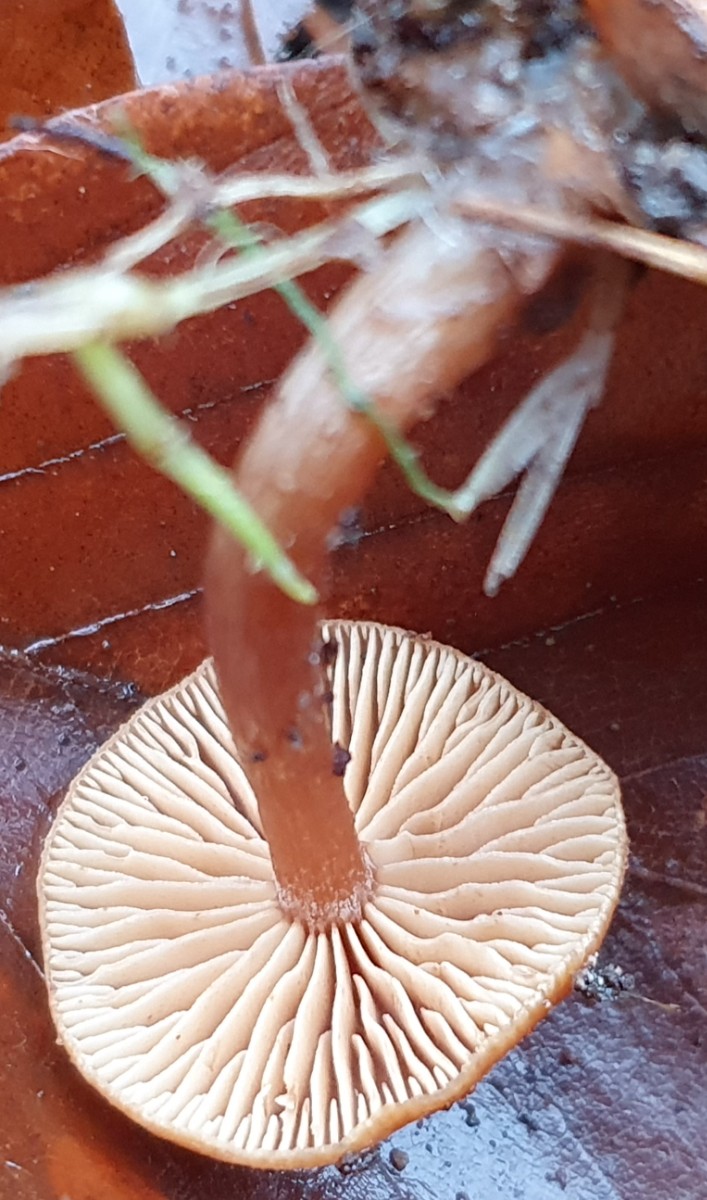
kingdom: Fungi
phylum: Basidiomycota
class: Agaricomycetes
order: Agaricales
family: Tubariaceae
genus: Tubaria
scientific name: Tubaria furfuracea
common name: kliddet fnughat
